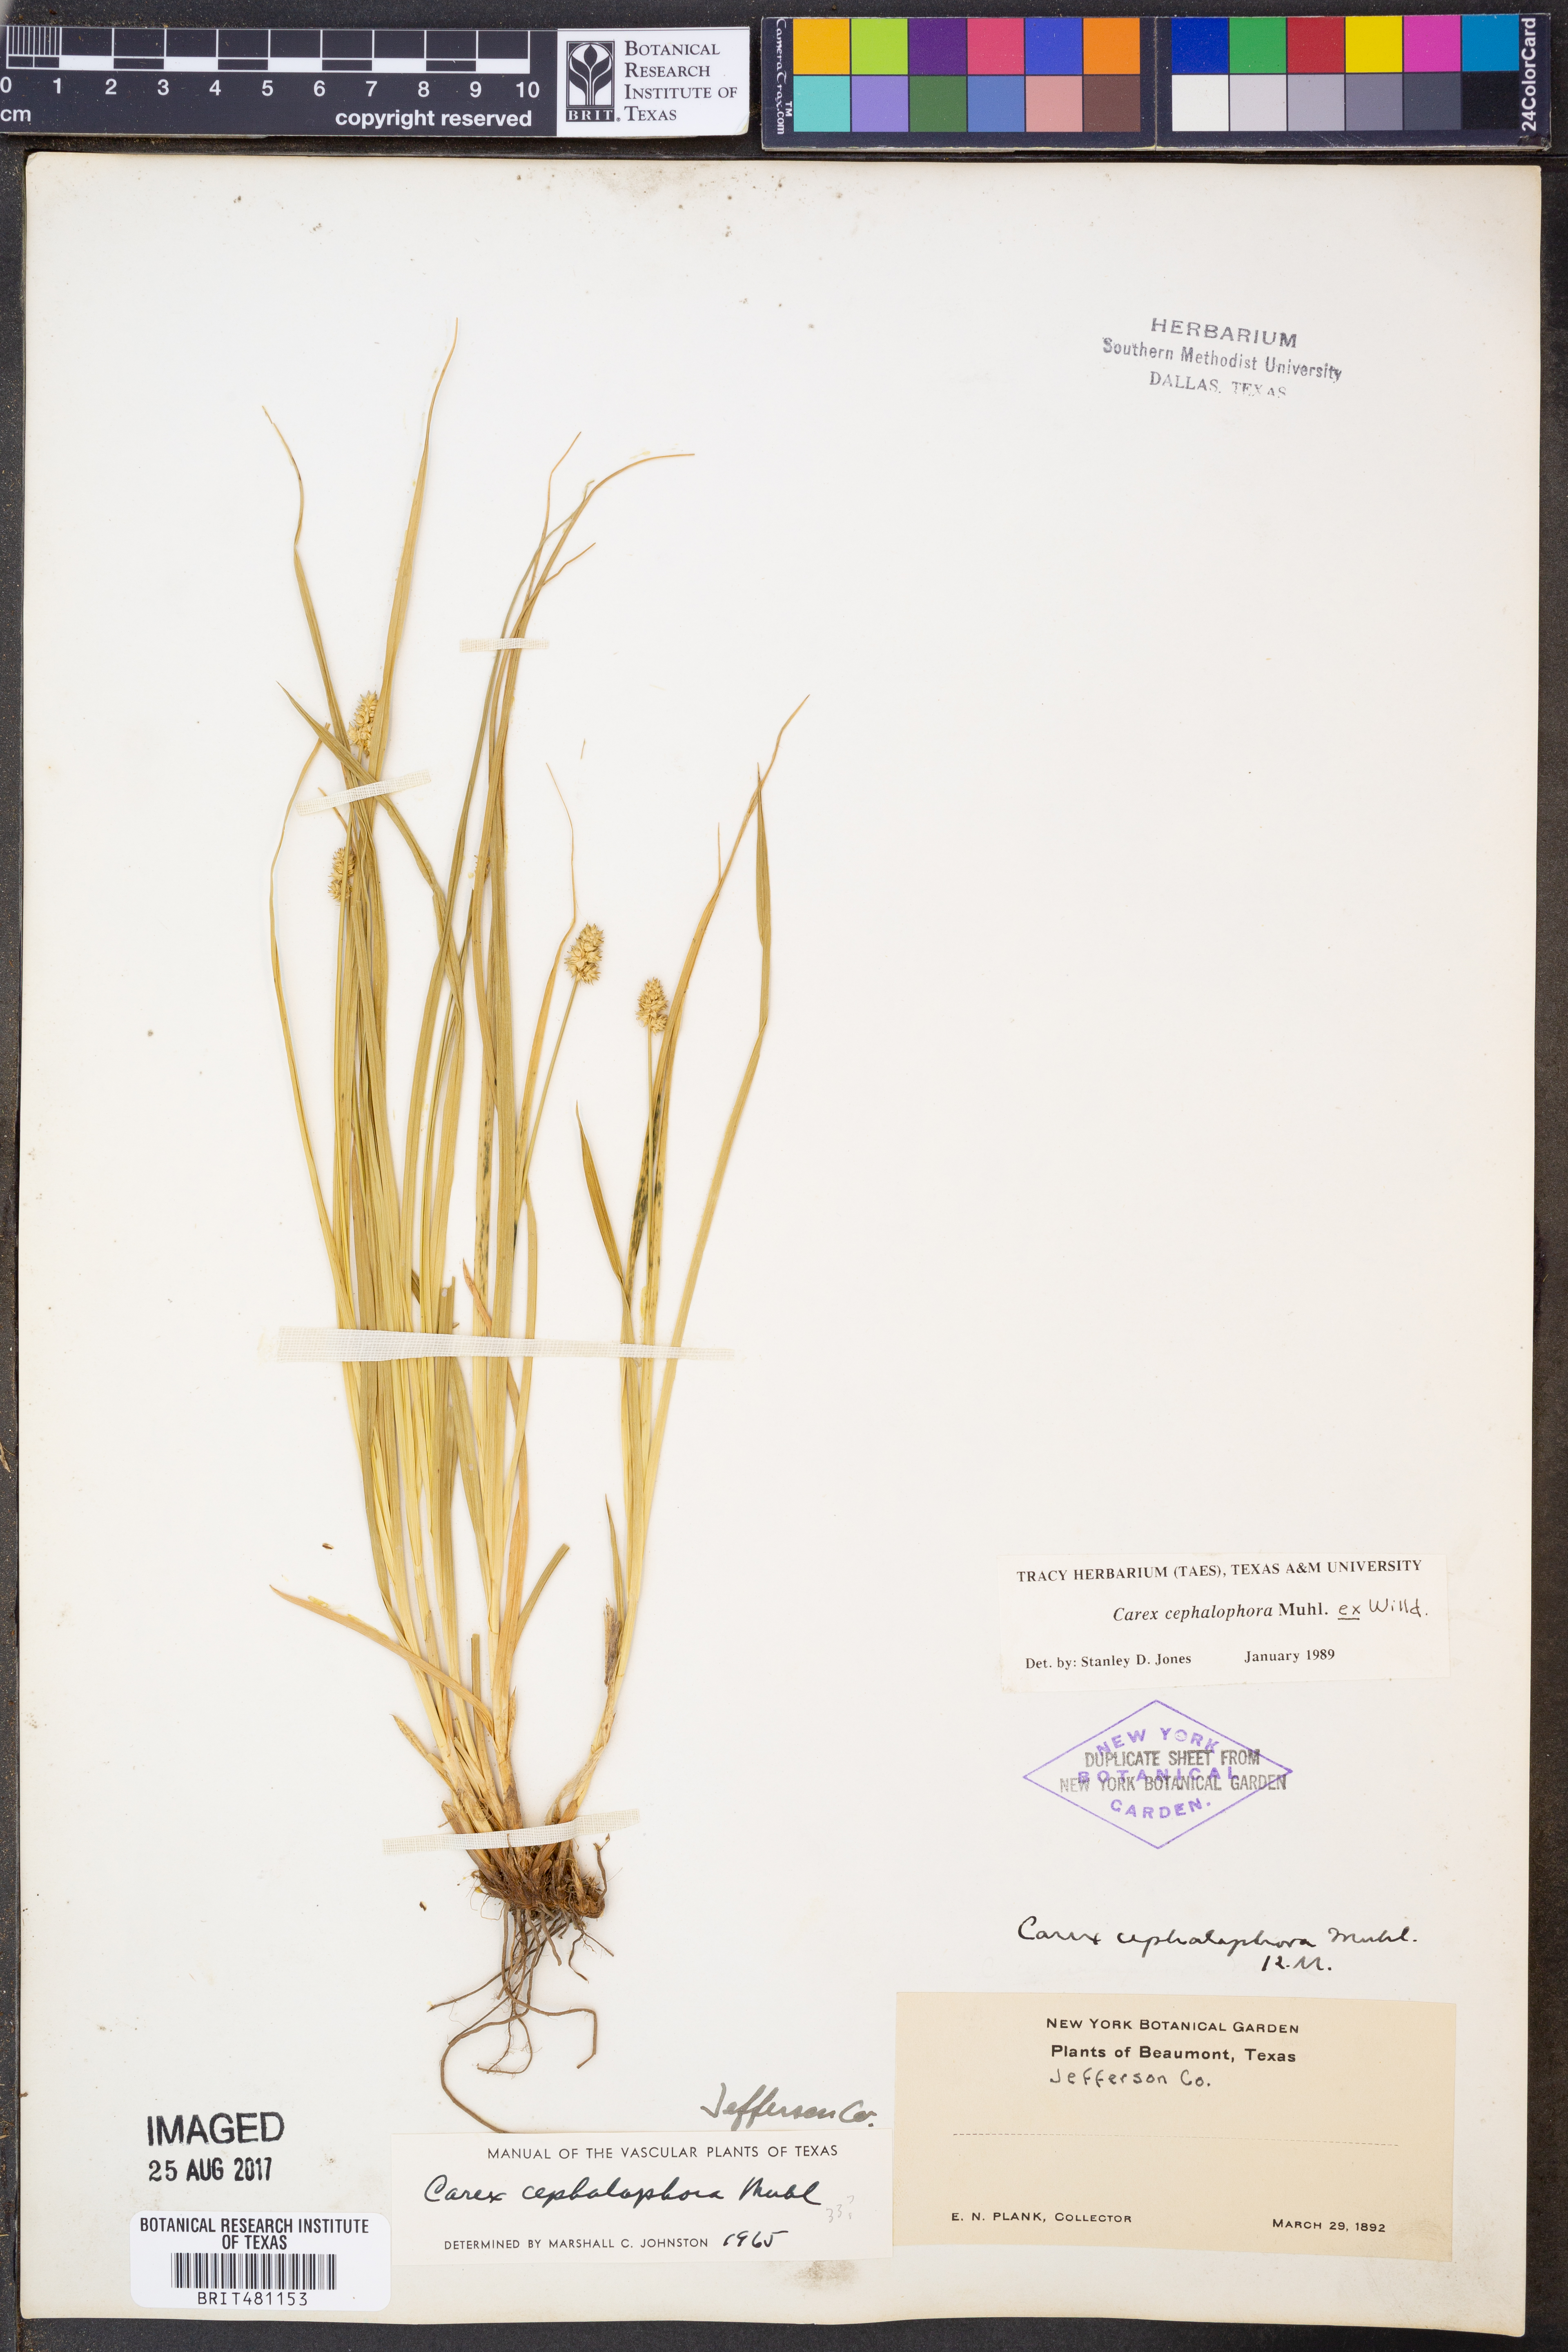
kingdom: Plantae
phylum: Tracheophyta
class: Liliopsida
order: Poales
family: Cyperaceae
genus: Carex
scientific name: Carex cephalophora
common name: Oval-headed sedge
